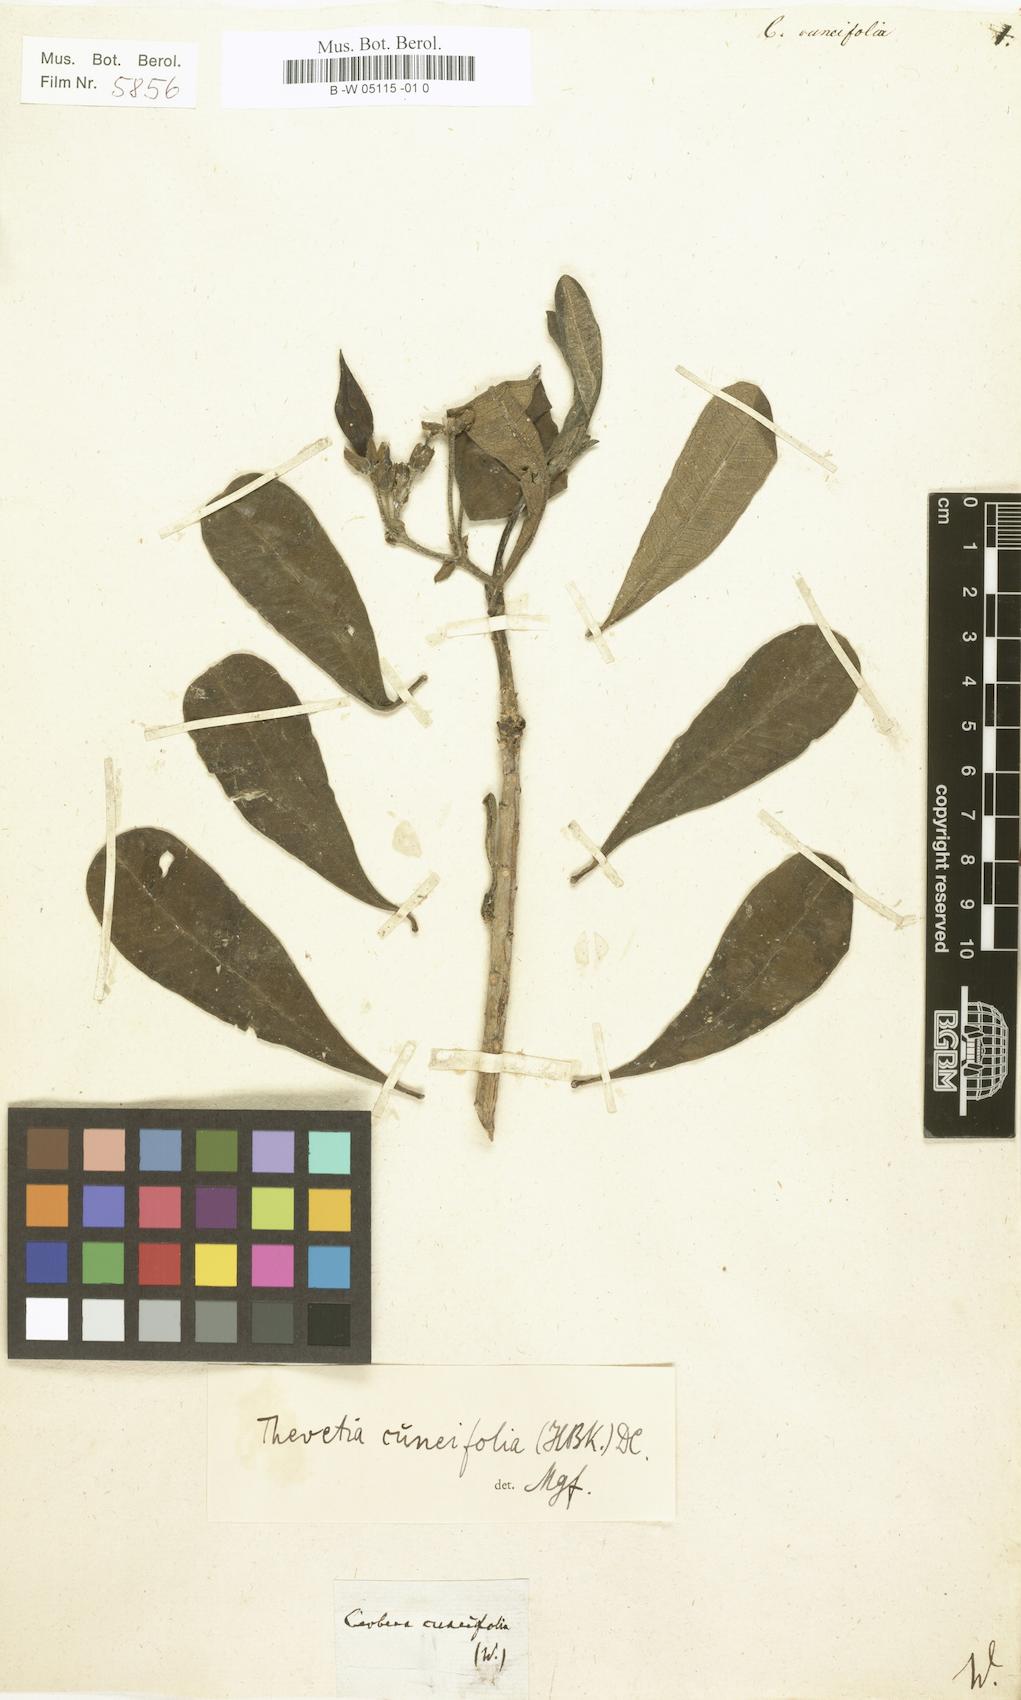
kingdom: Plantae
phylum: Tracheophyta
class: Magnoliopsida
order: Gentianales
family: Apocynaceae
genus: Cascabela
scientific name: Cascabela ovata
